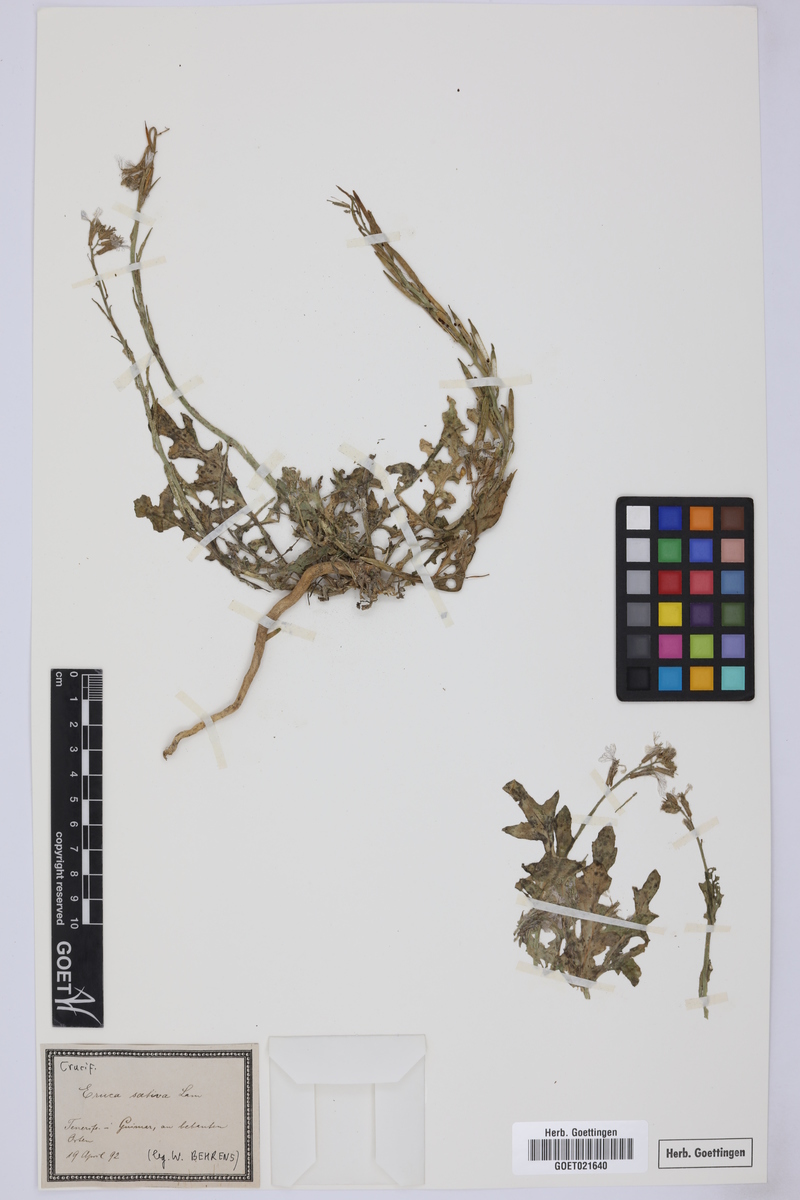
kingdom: Plantae
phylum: Tracheophyta
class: Magnoliopsida
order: Brassicales
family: Brassicaceae
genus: Eruca
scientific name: Eruca vesicaria
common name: Garden rocket
